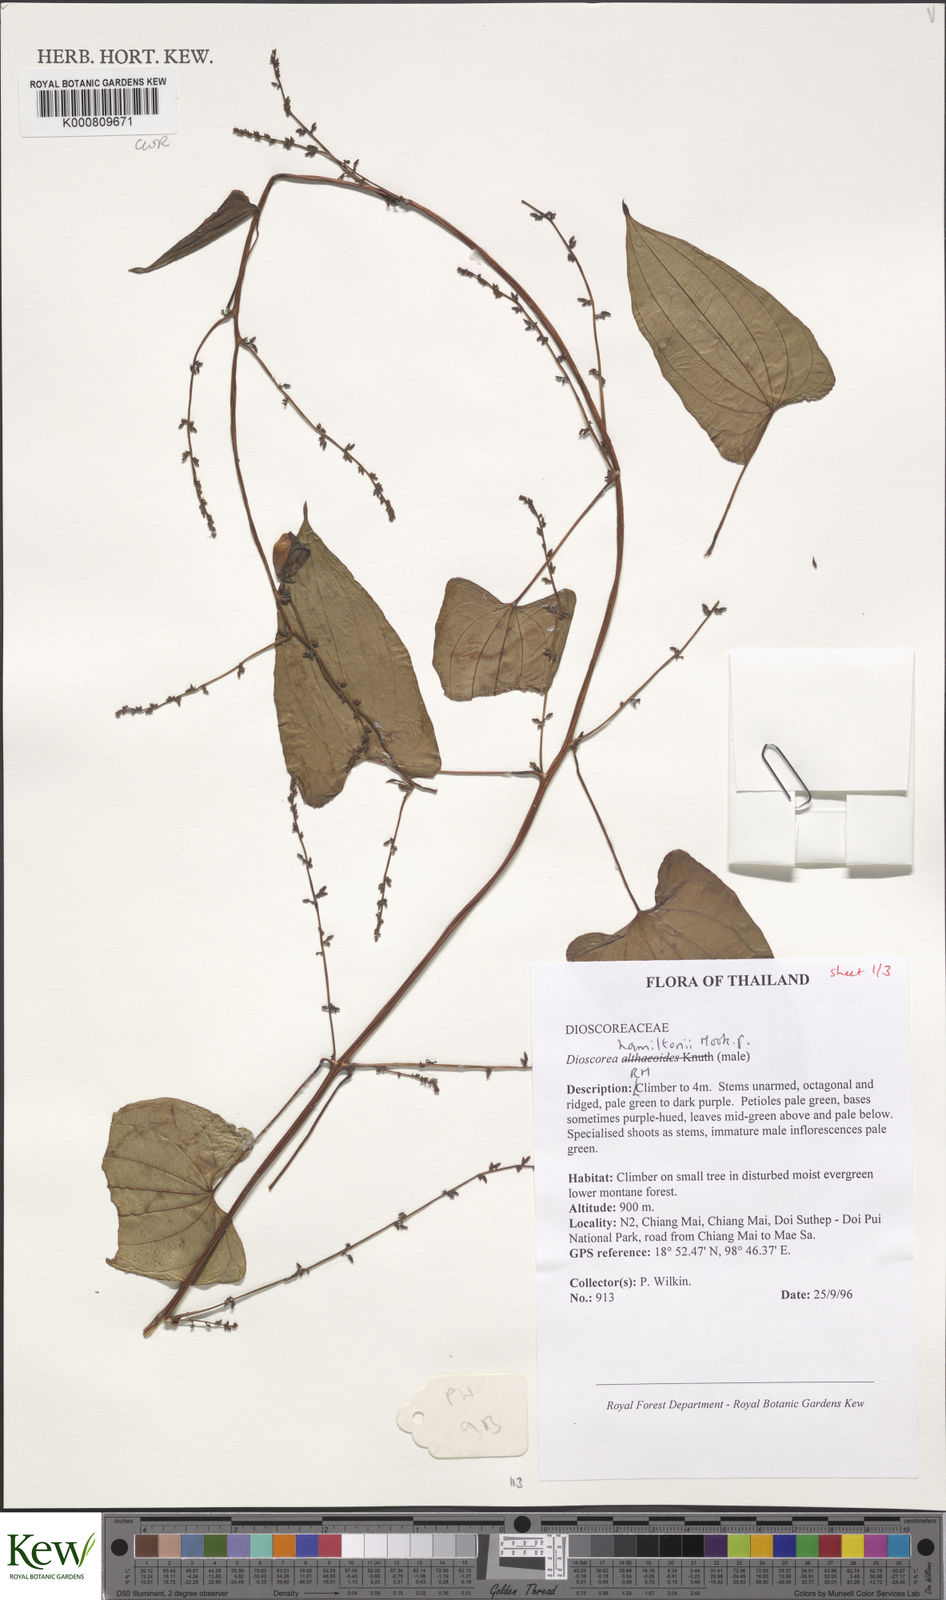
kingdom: Plantae
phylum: Tracheophyta
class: Liliopsida
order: Dioscoreales
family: Dioscoreaceae
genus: Dioscorea
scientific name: Dioscorea hamiltonii
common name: Mountain yam
